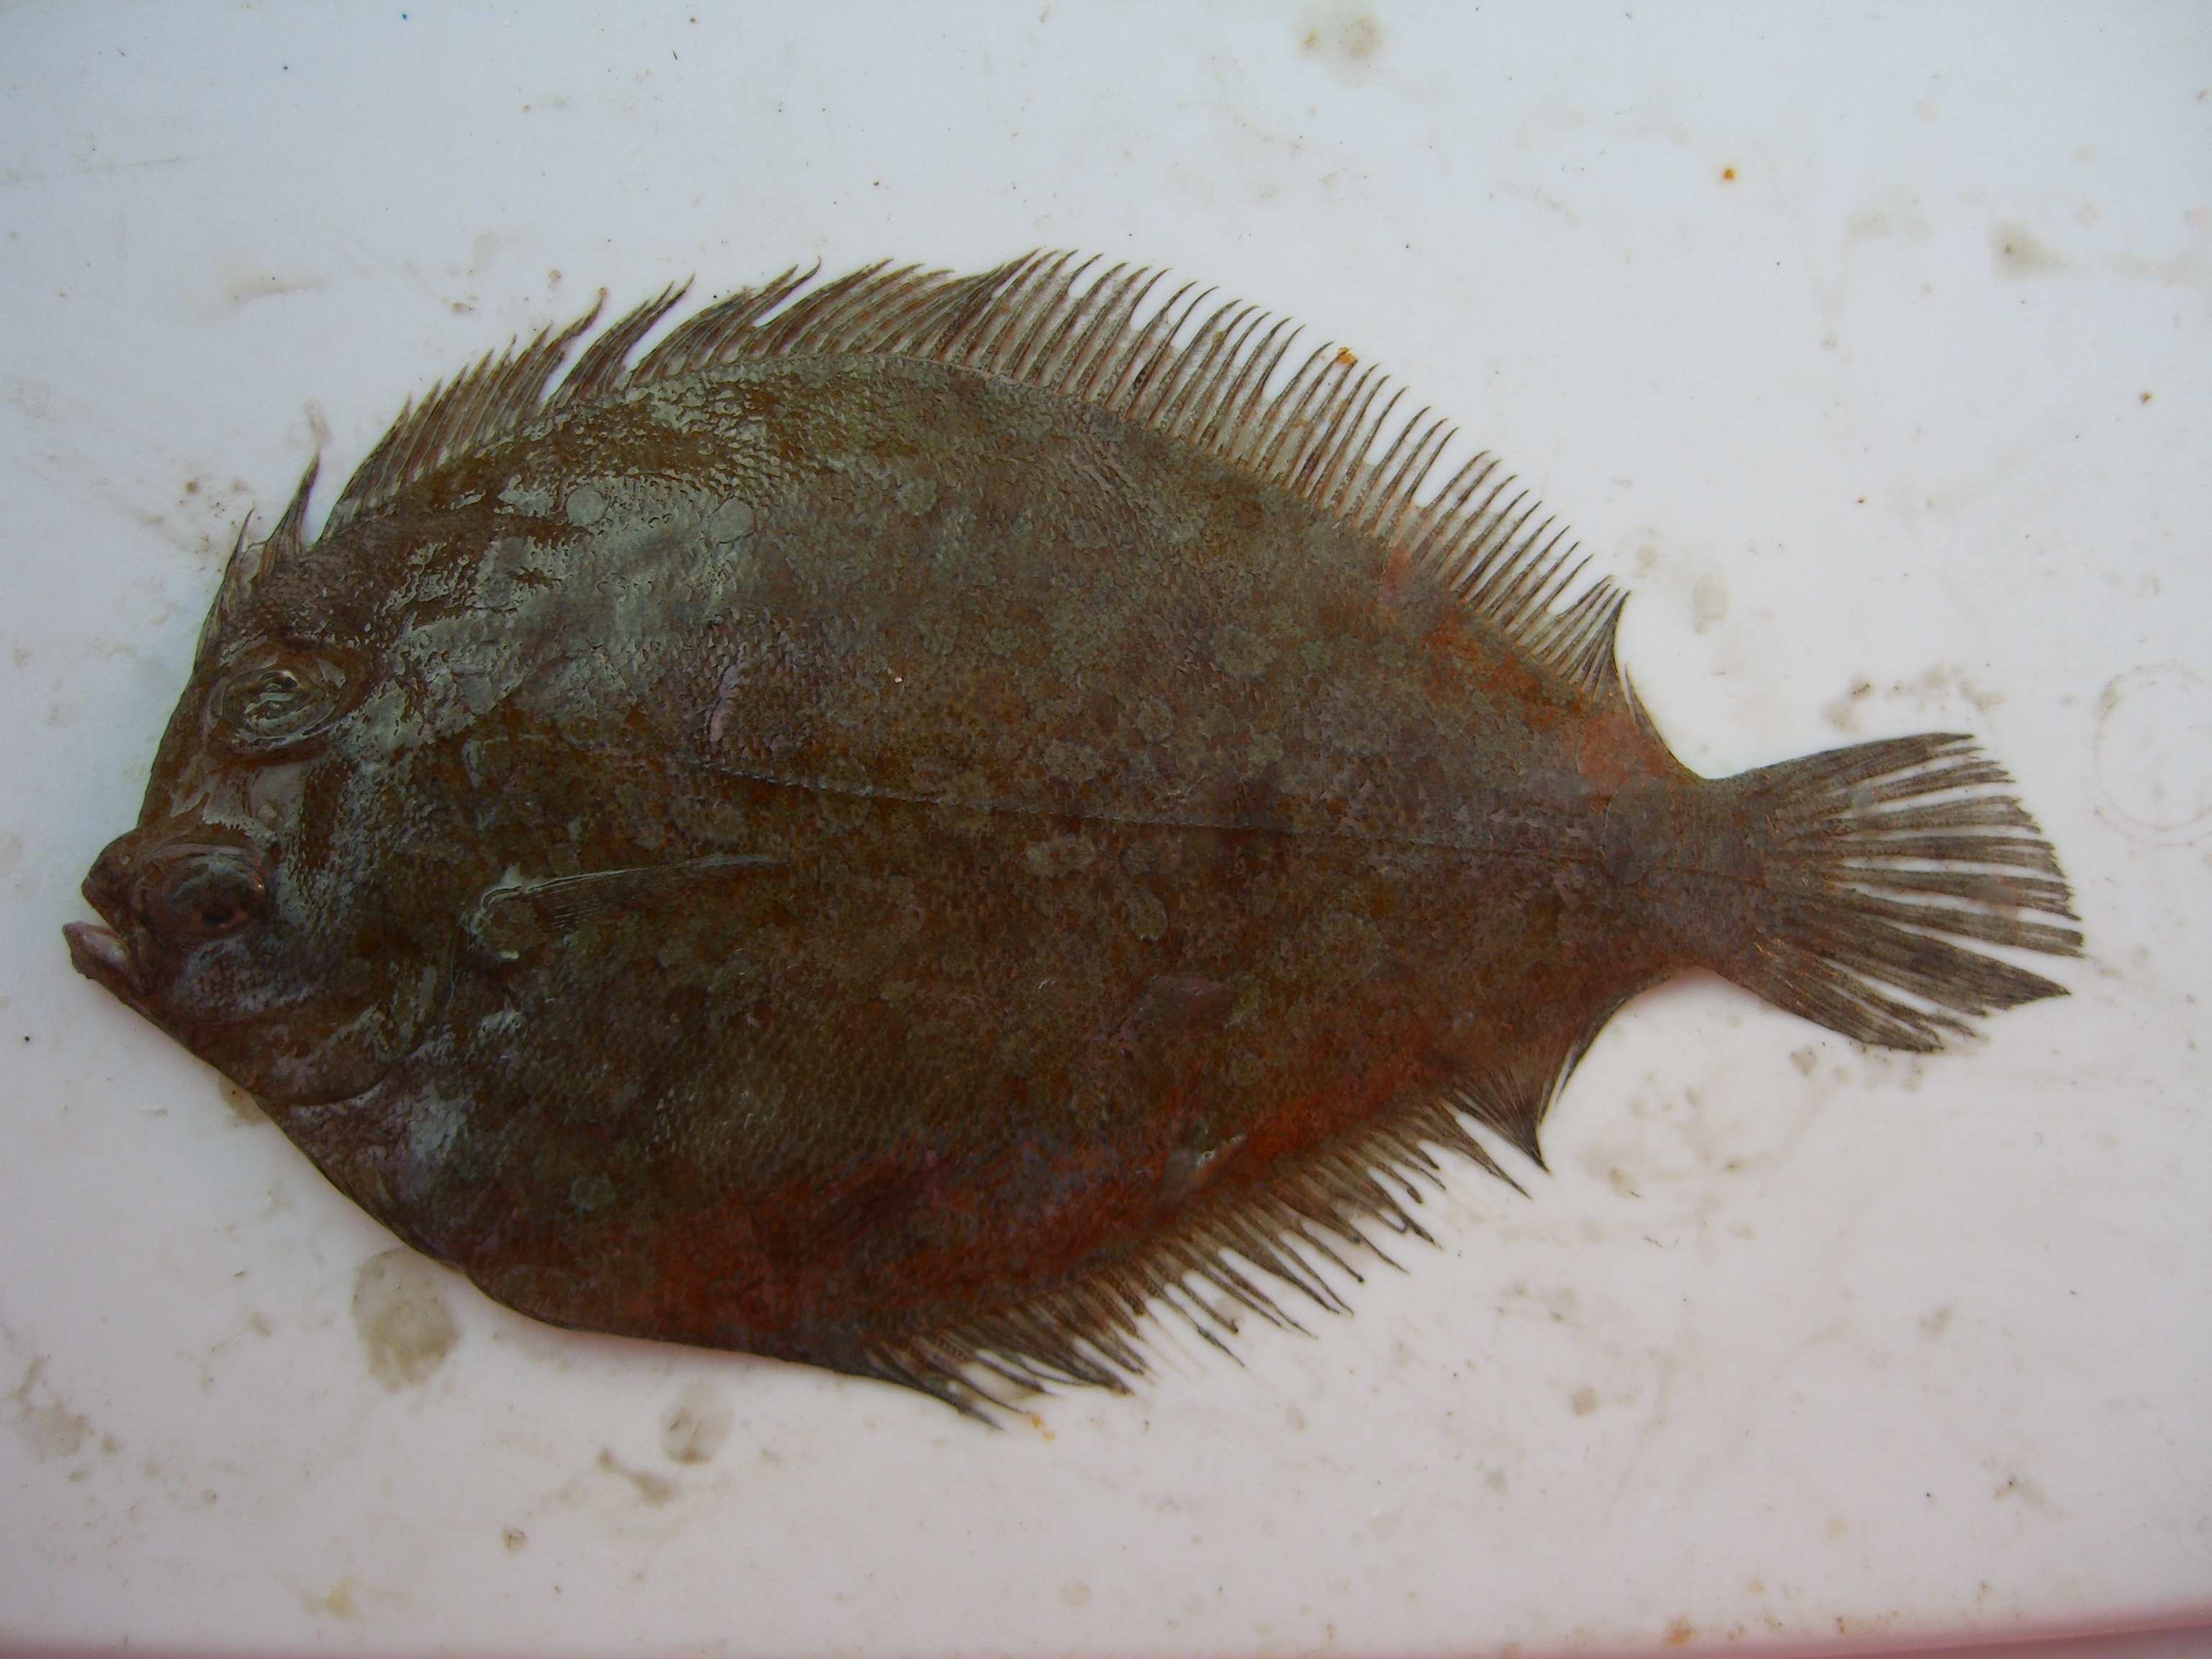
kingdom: Animalia
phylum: Chordata
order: Pleuronectiformes
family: Bothidae
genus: Bothus
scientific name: Bothus podas
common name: Wide-eyed flounder
